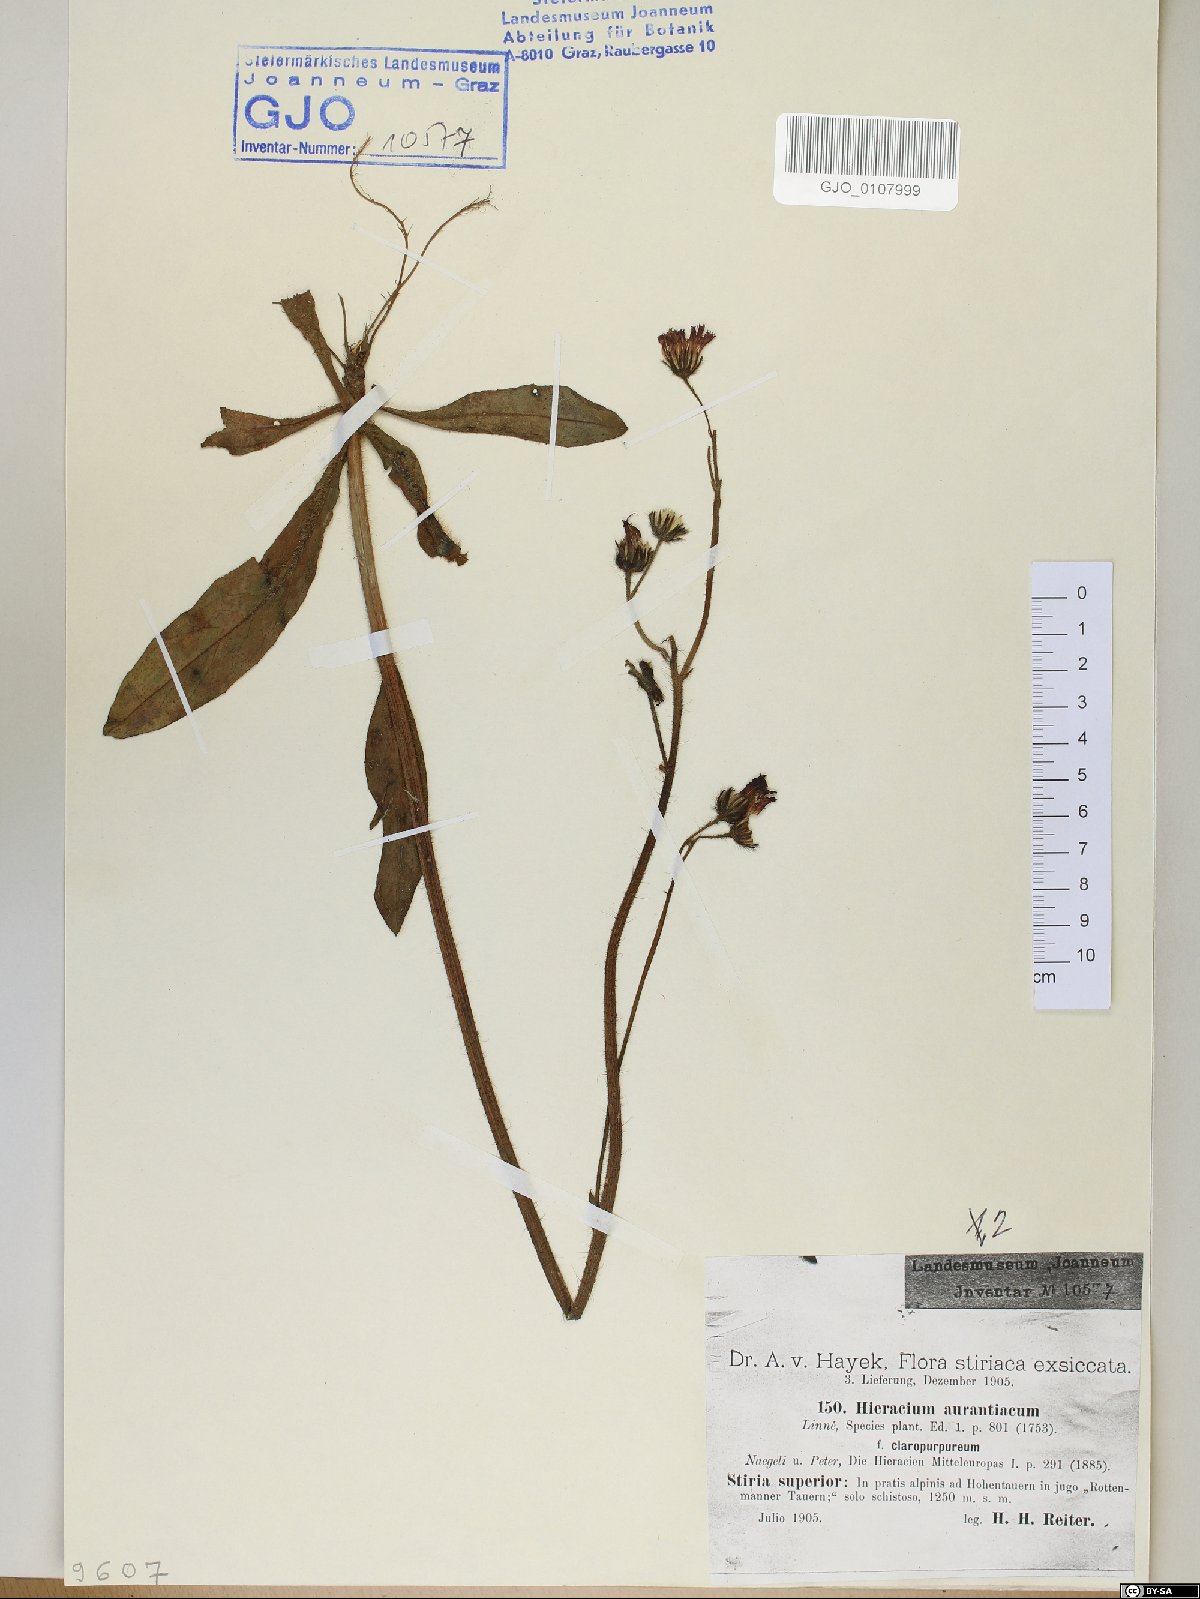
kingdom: Plantae
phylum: Tracheophyta
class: Magnoliopsida
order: Asterales
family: Asteraceae
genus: Pilosella
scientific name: Pilosella aurantiaca
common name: Fox-and-cubs
